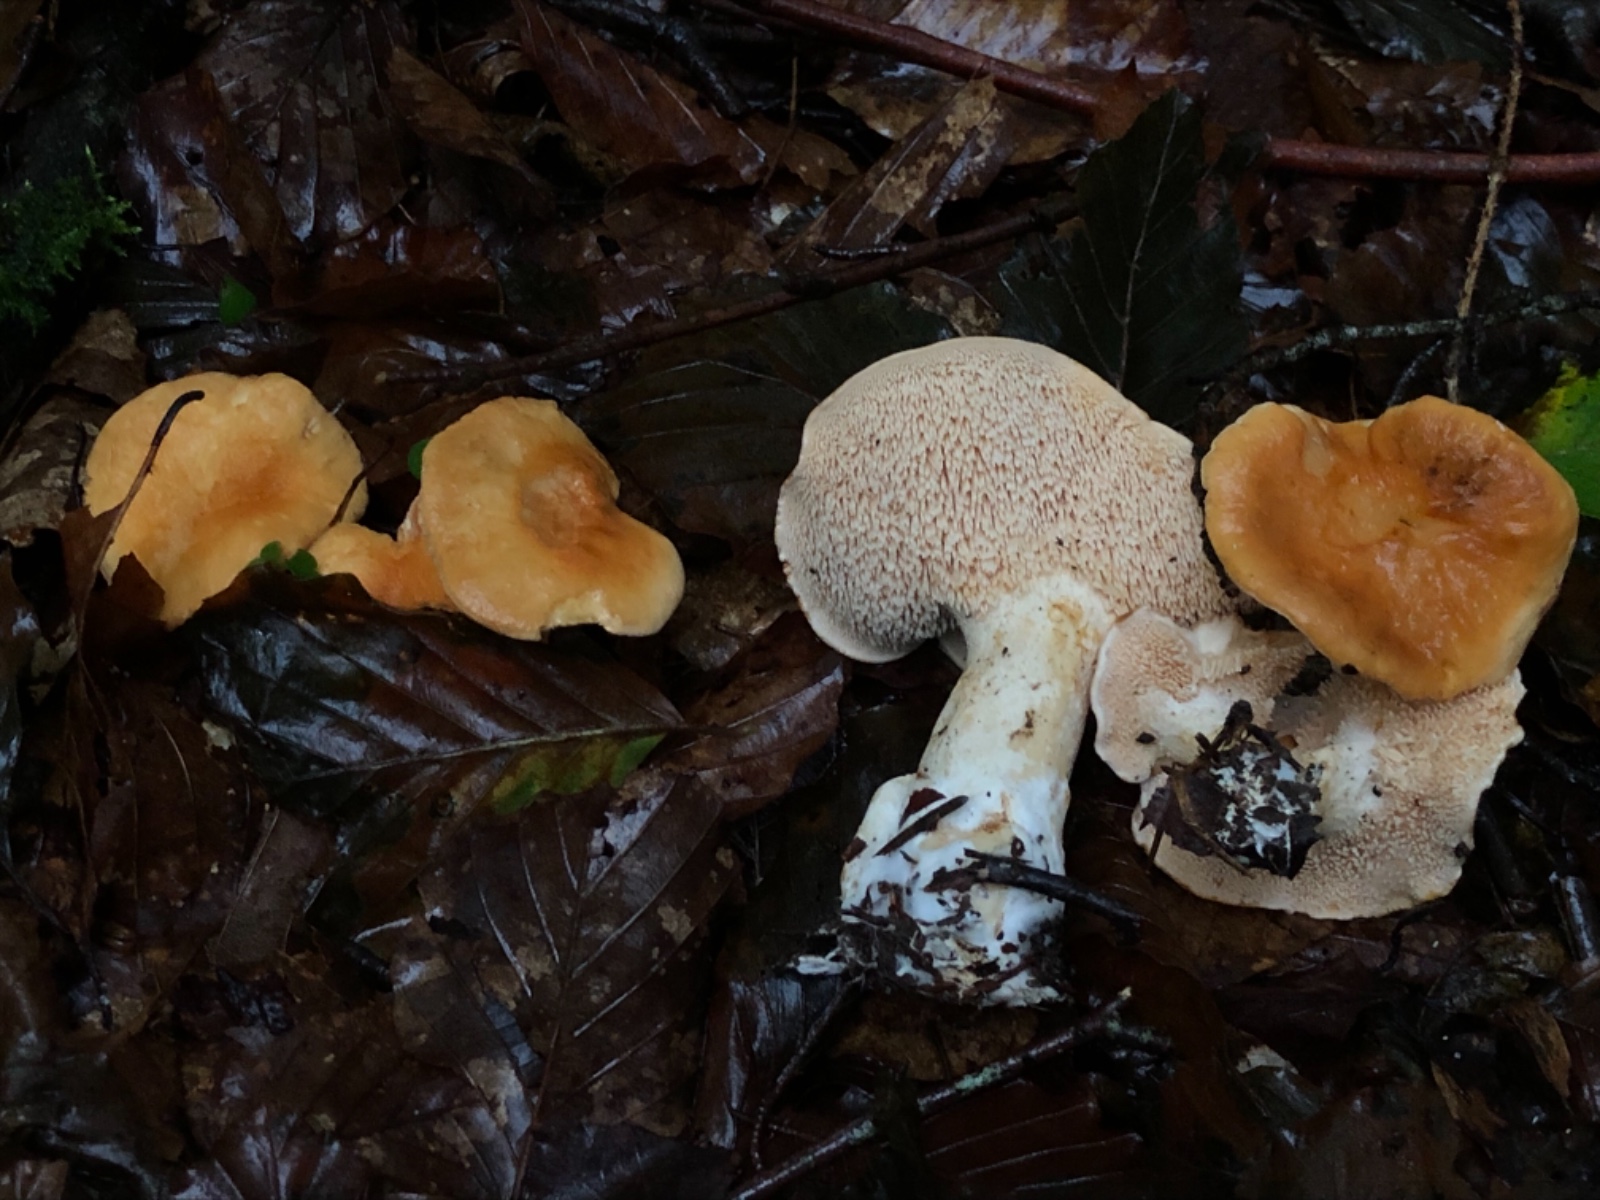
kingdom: Fungi
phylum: Basidiomycota
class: Agaricomycetes
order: Cantharellales
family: Hydnaceae
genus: Hydnum
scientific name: Hydnum
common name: pigsvamp
